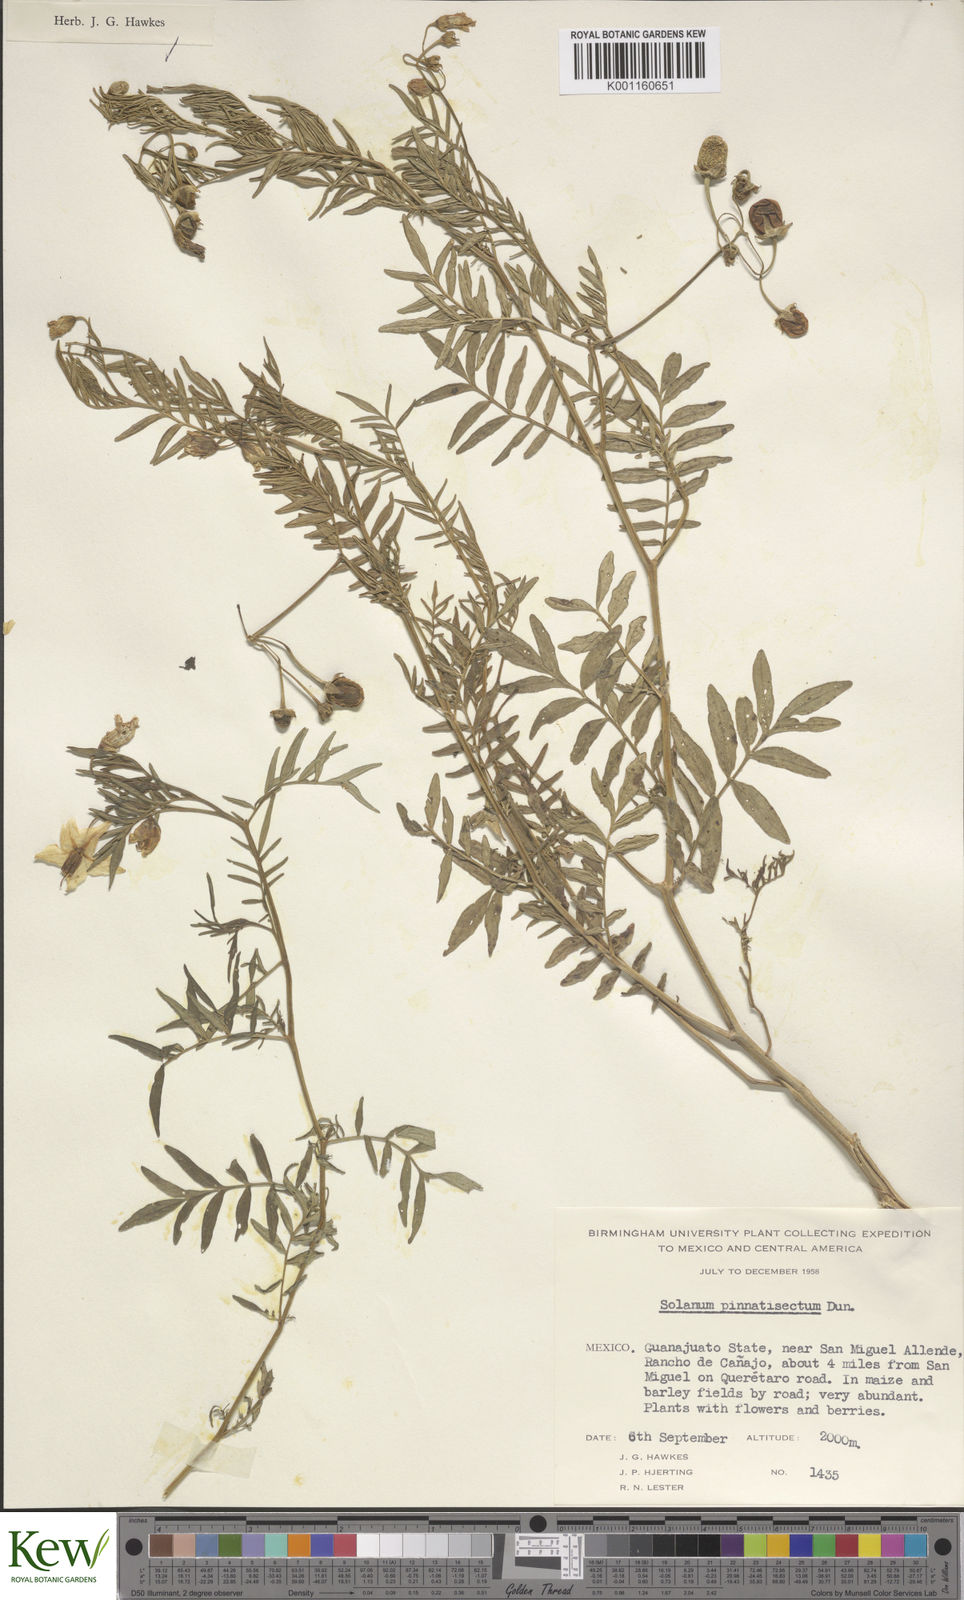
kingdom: Plantae
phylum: Tracheophyta
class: Magnoliopsida
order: Solanales
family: Solanaceae
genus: Solanum
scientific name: Solanum pinnatisectum
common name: Tansyleaf nightshade
